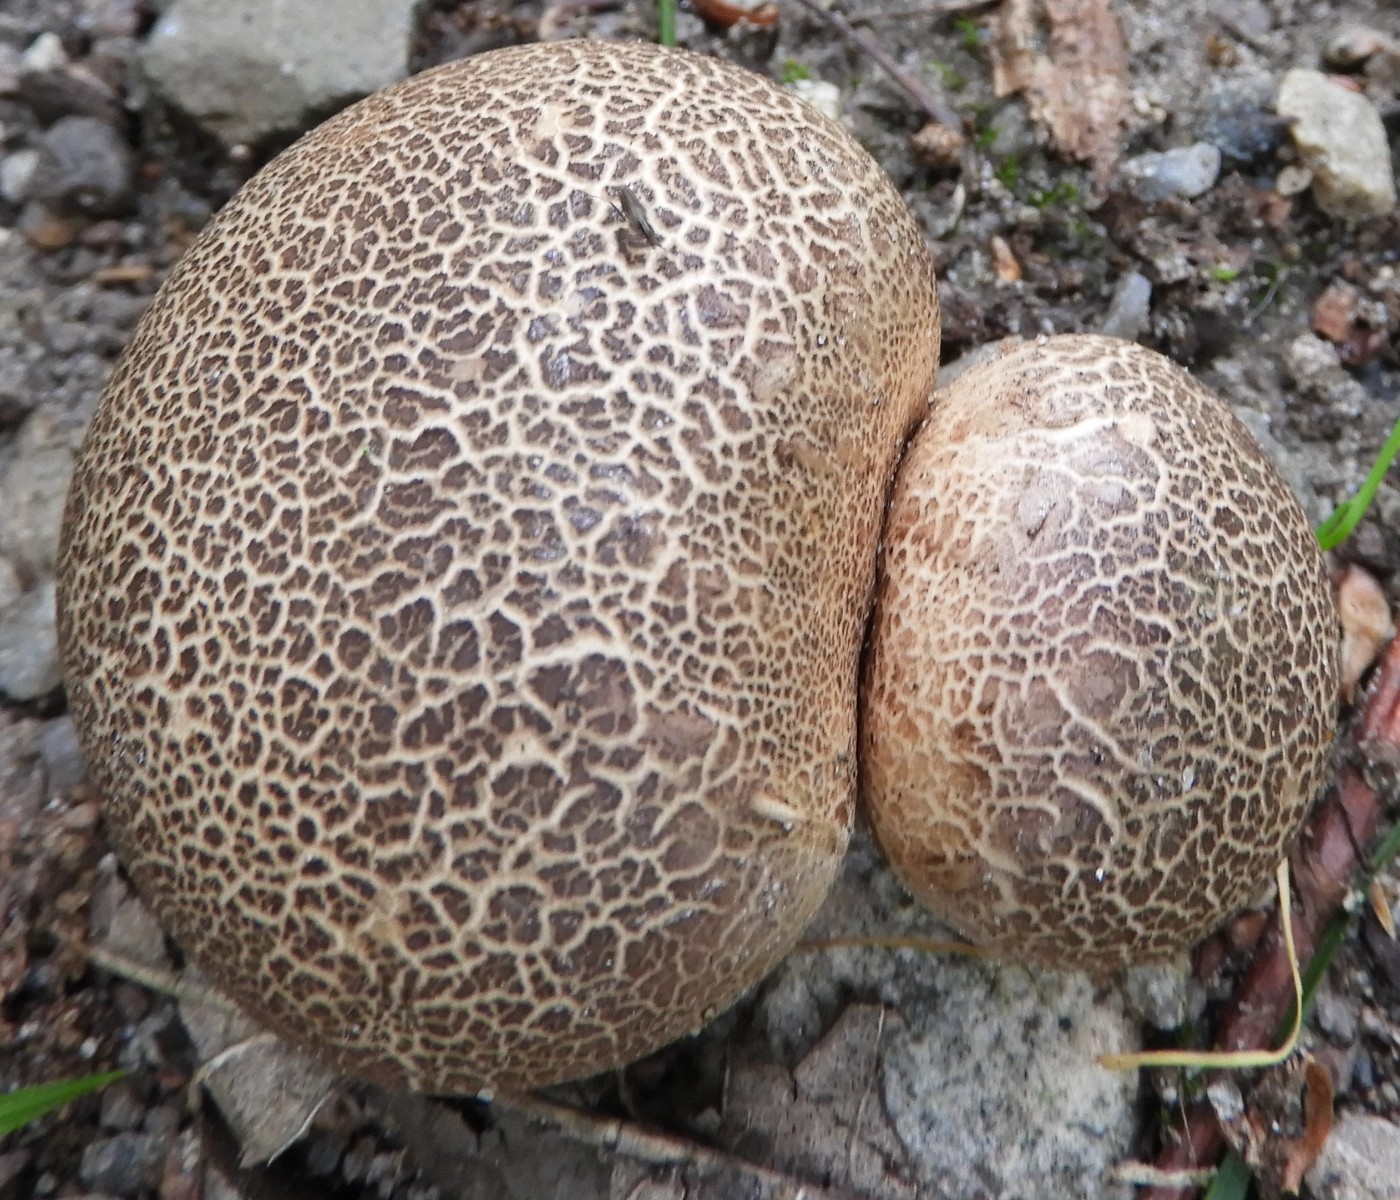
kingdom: Fungi
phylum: Basidiomycota
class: Agaricomycetes
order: Boletales
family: Sclerodermataceae
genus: Scleroderma
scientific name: Scleroderma citrinum
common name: almindelig bruskbold
